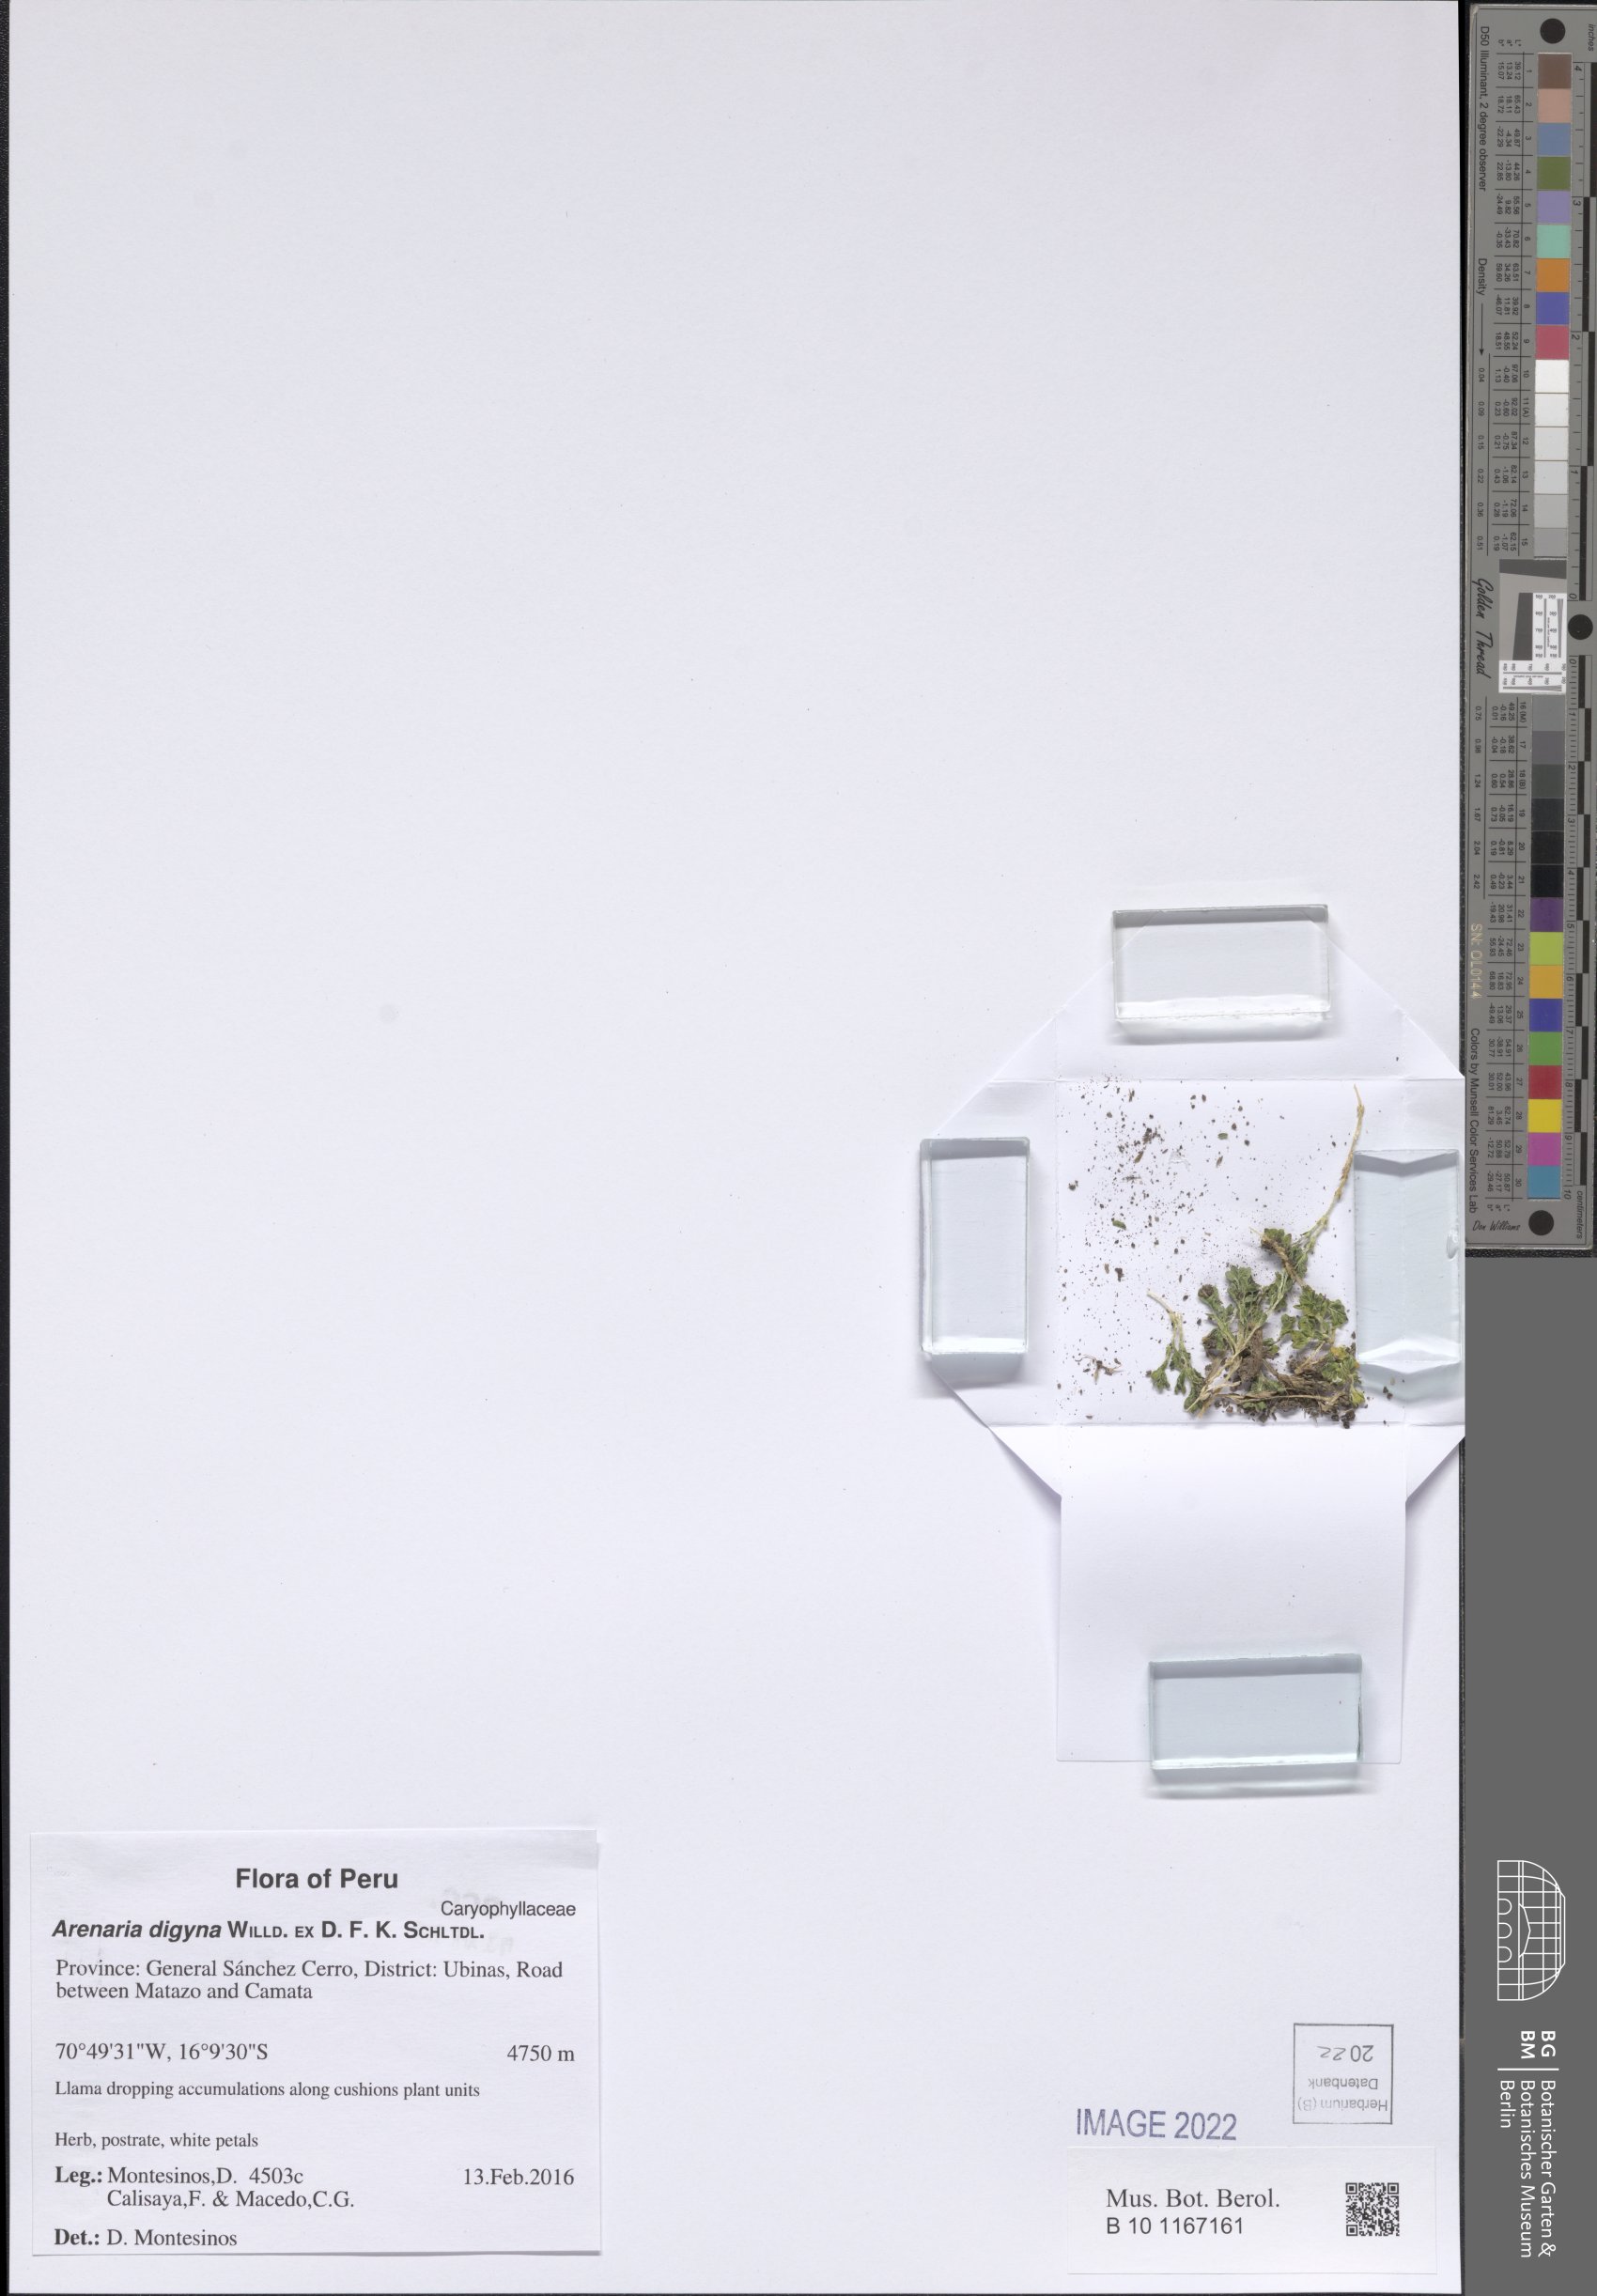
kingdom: Plantae
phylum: Tracheophyta
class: Magnoliopsida
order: Caryophyllales
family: Caryophyllaceae
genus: Arenaria
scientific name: Arenaria digyna
